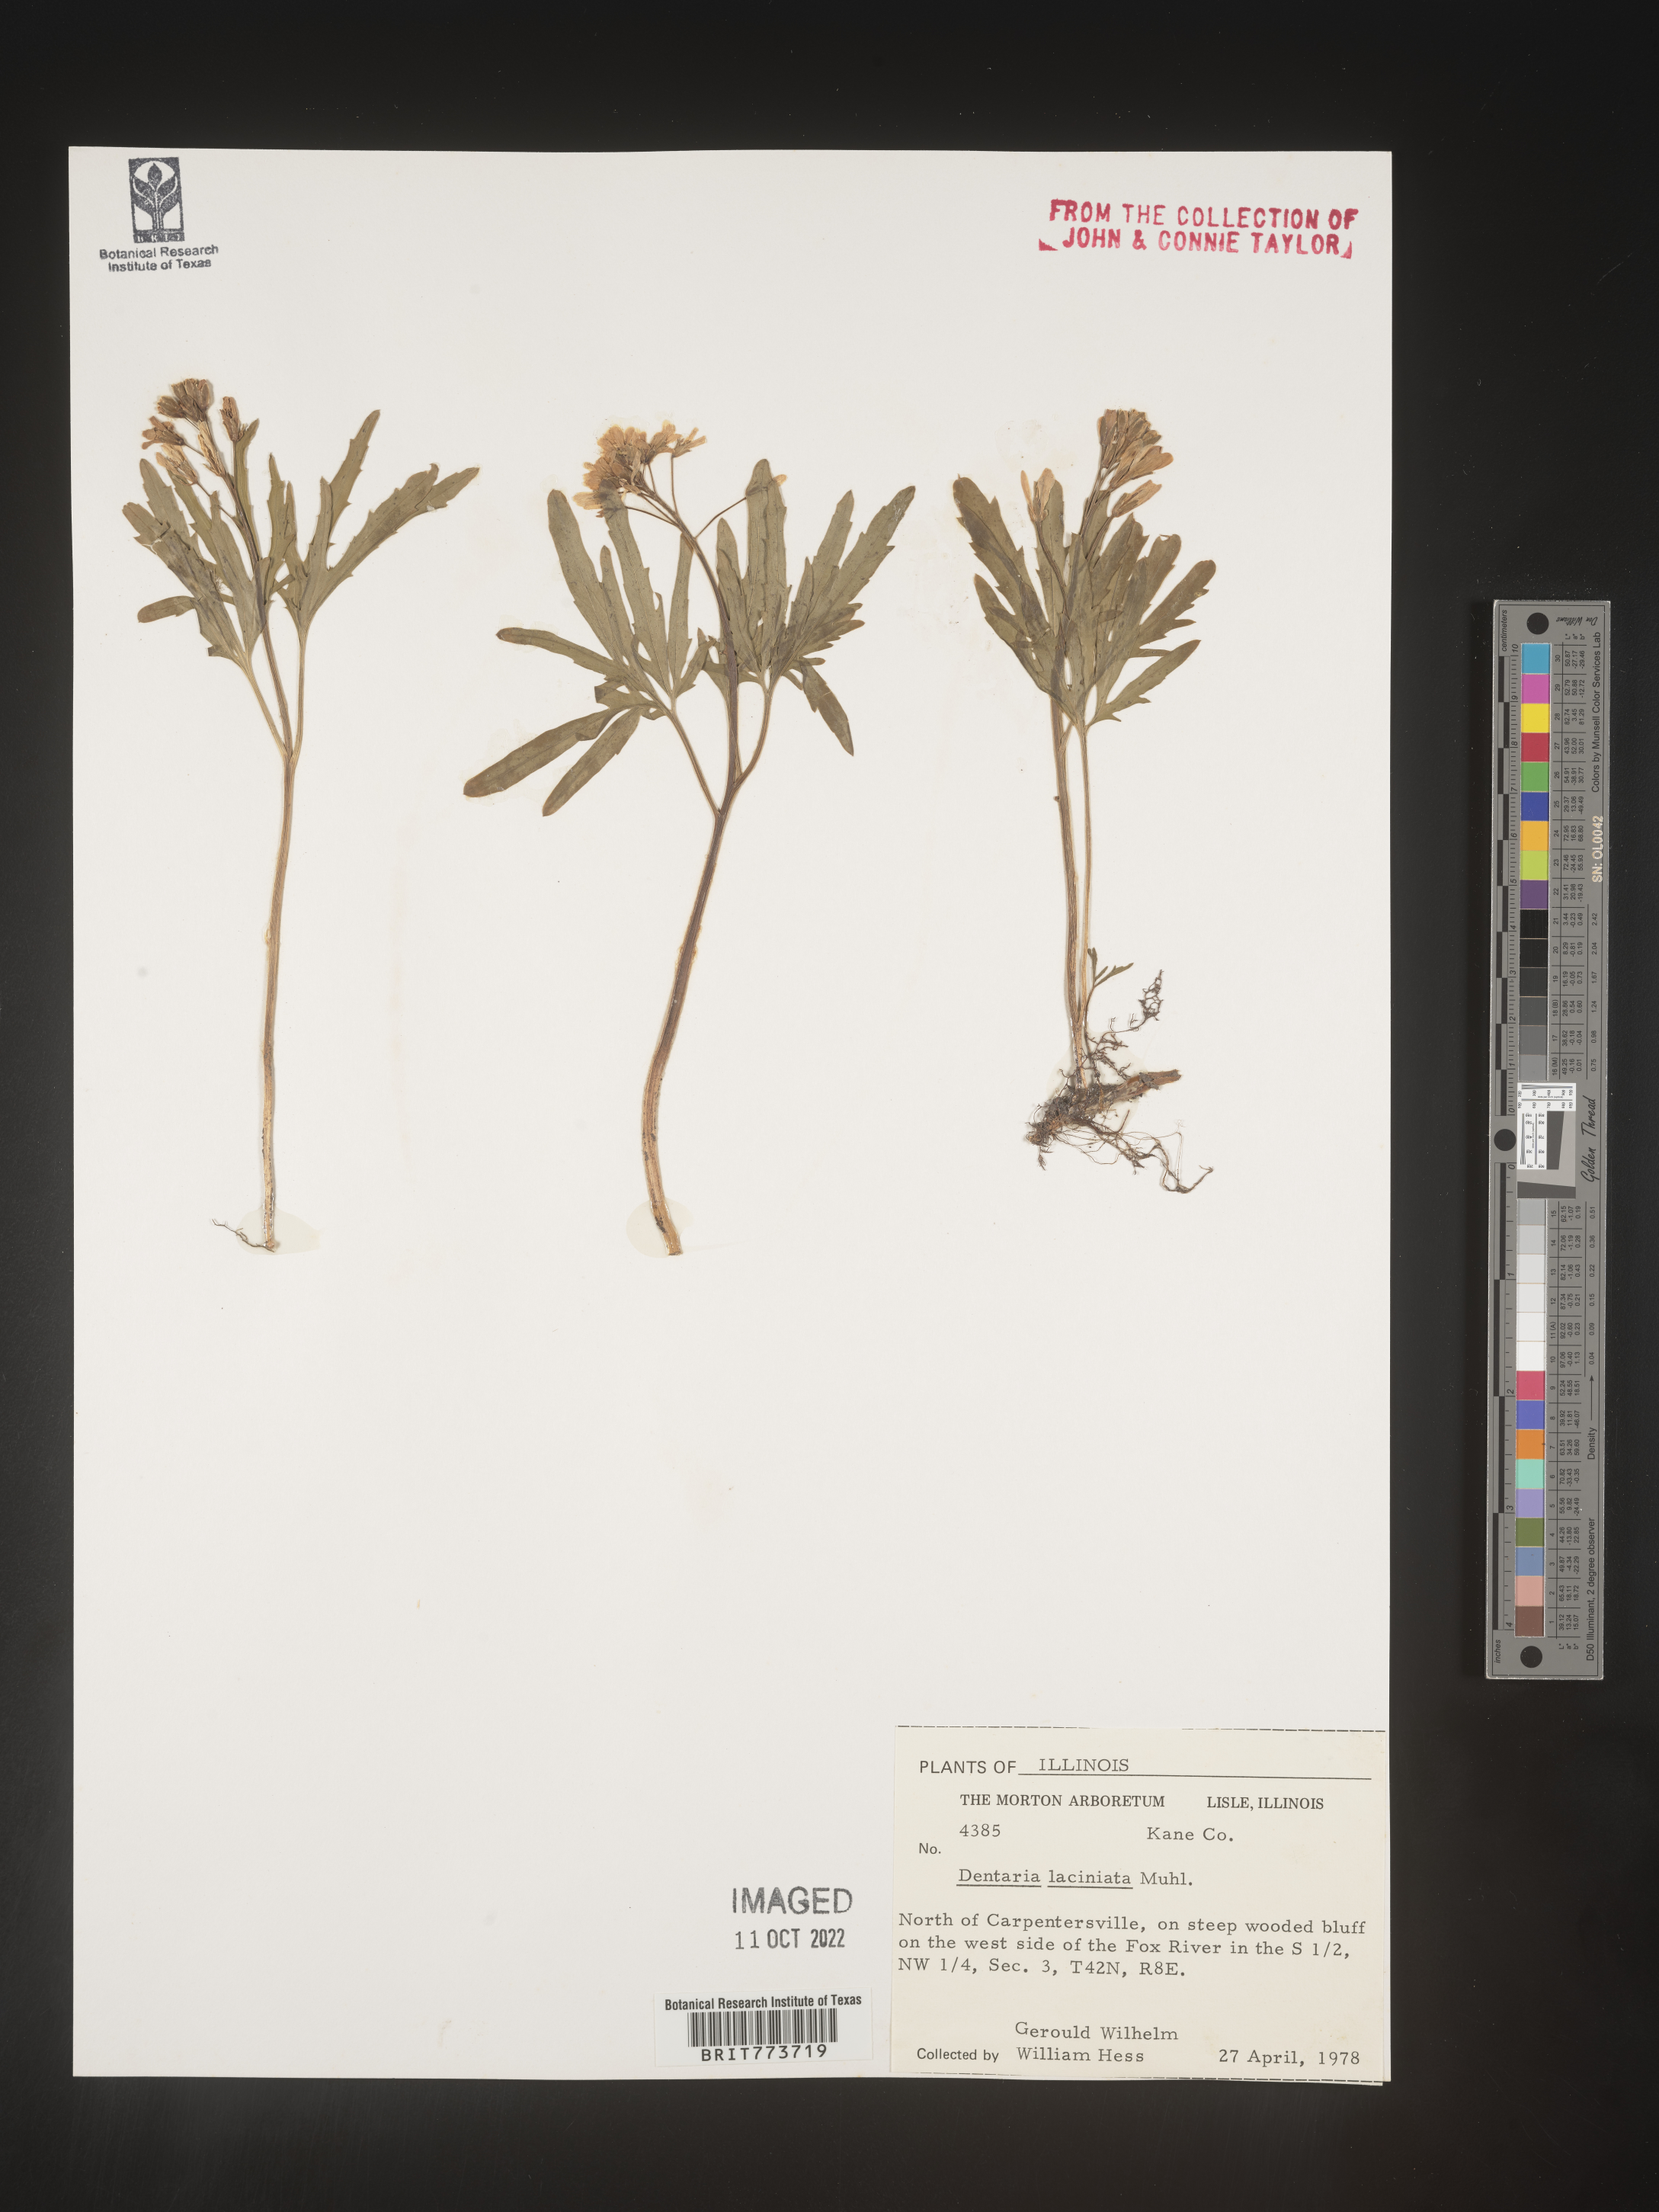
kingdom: Plantae
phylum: Tracheophyta
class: Magnoliopsida
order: Brassicales
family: Brassicaceae
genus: Rorippa
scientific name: Rorippa laciniata
